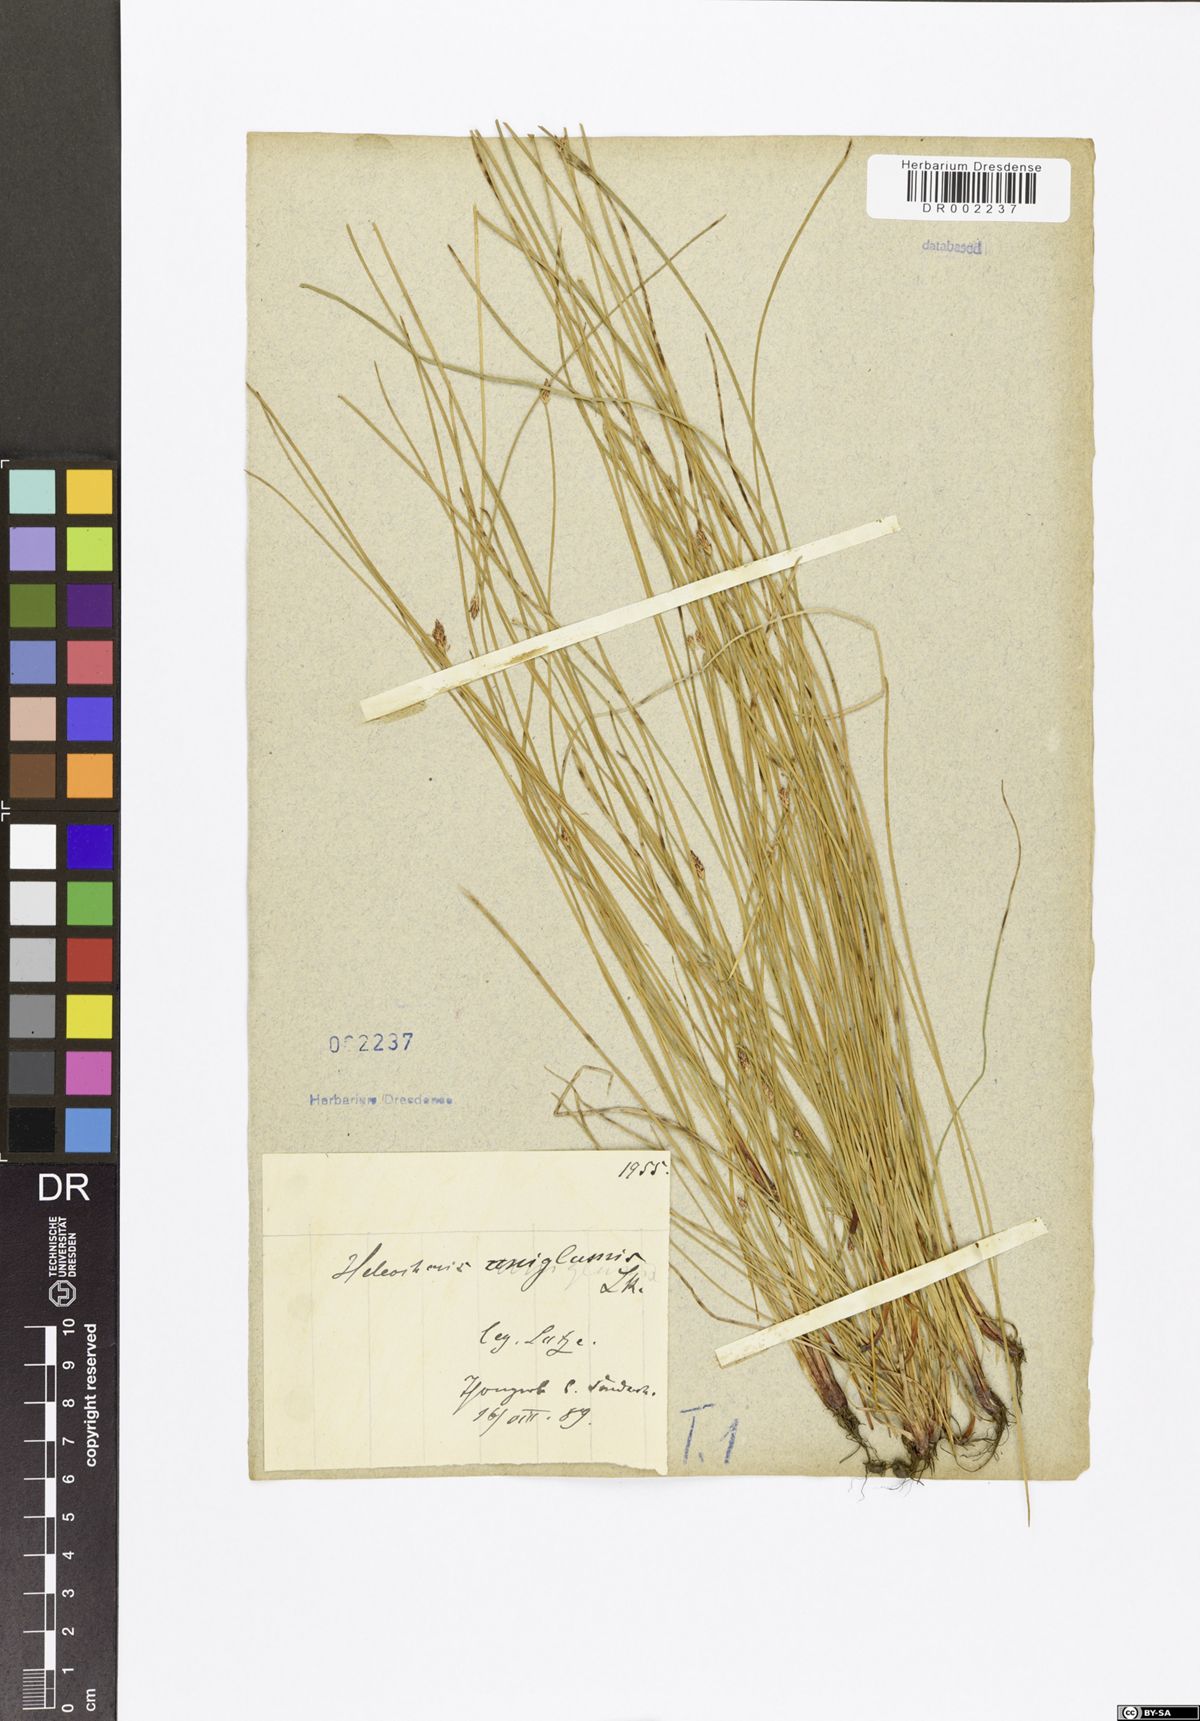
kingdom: Plantae
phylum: Tracheophyta
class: Liliopsida
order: Poales
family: Cyperaceae
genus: Eleocharis
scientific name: Eleocharis uniglumis
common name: Slender spike-rush
